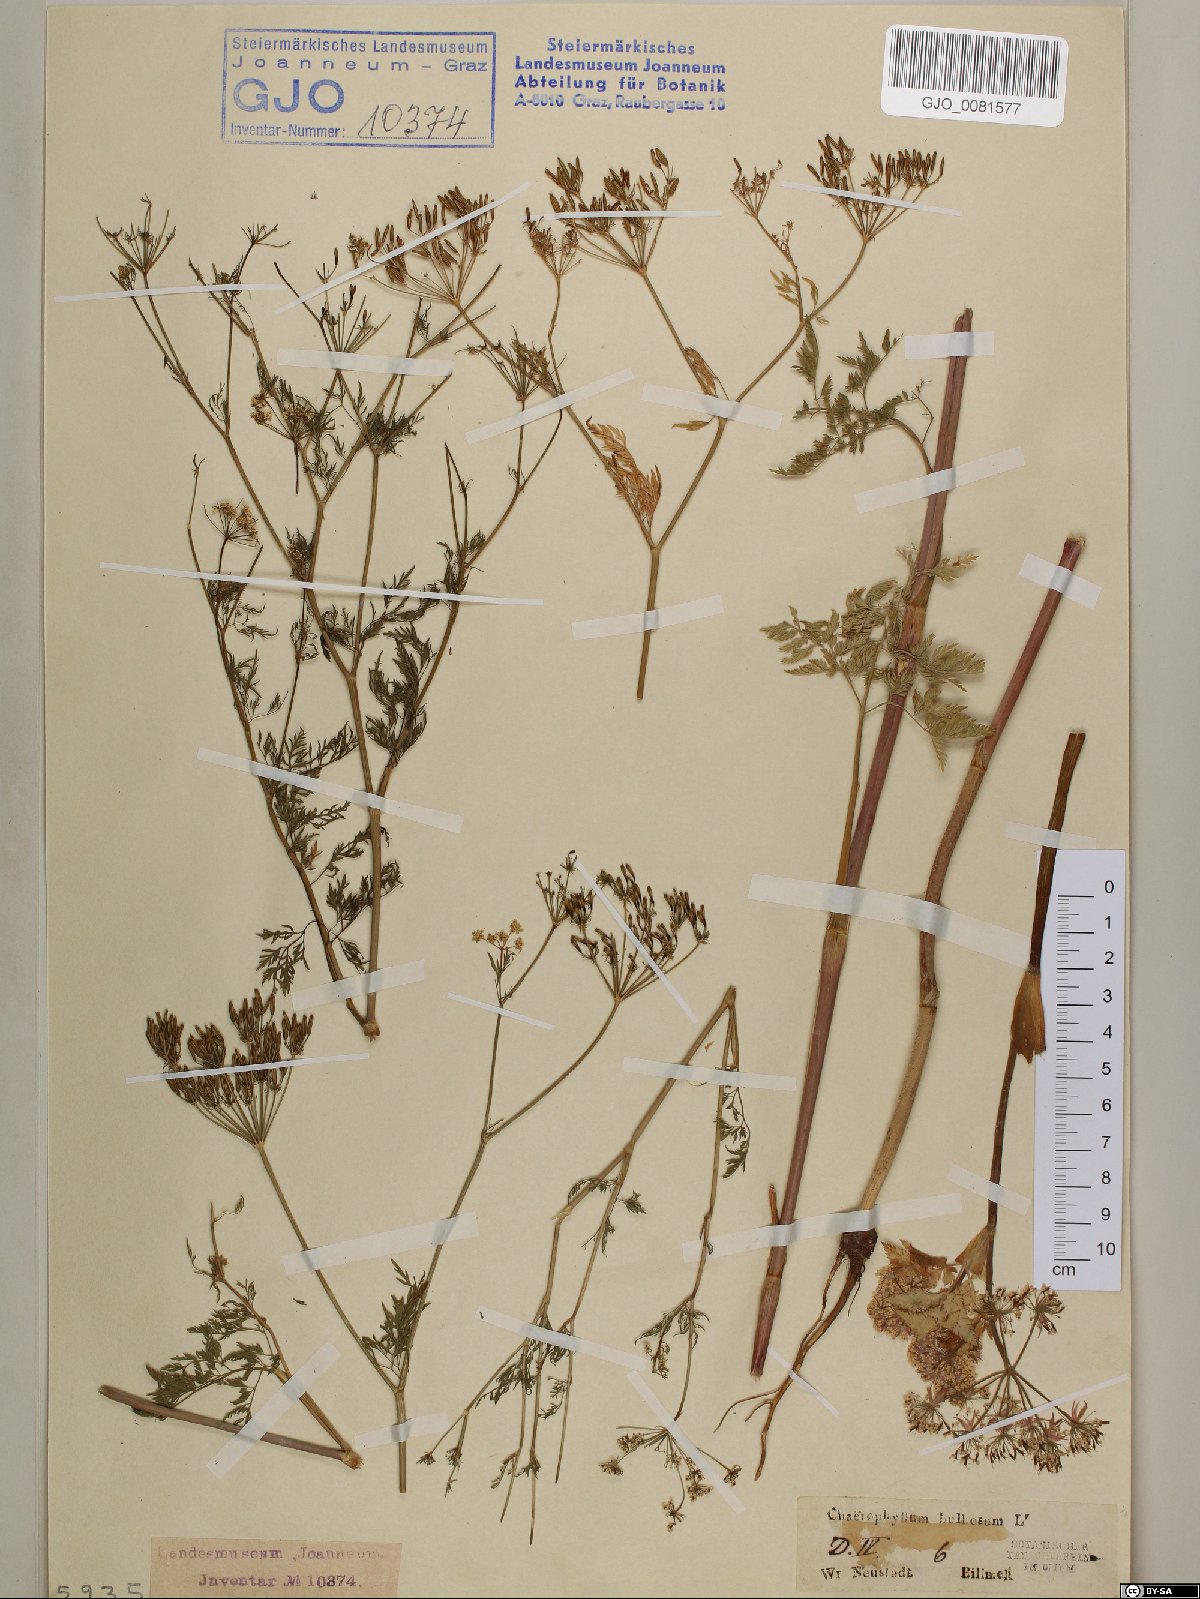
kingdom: Plantae
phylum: Tracheophyta
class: Magnoliopsida
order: Apiales
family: Apiaceae
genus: Chaerophyllum
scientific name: Chaerophyllum bulbosum
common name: Bulbous chervil
